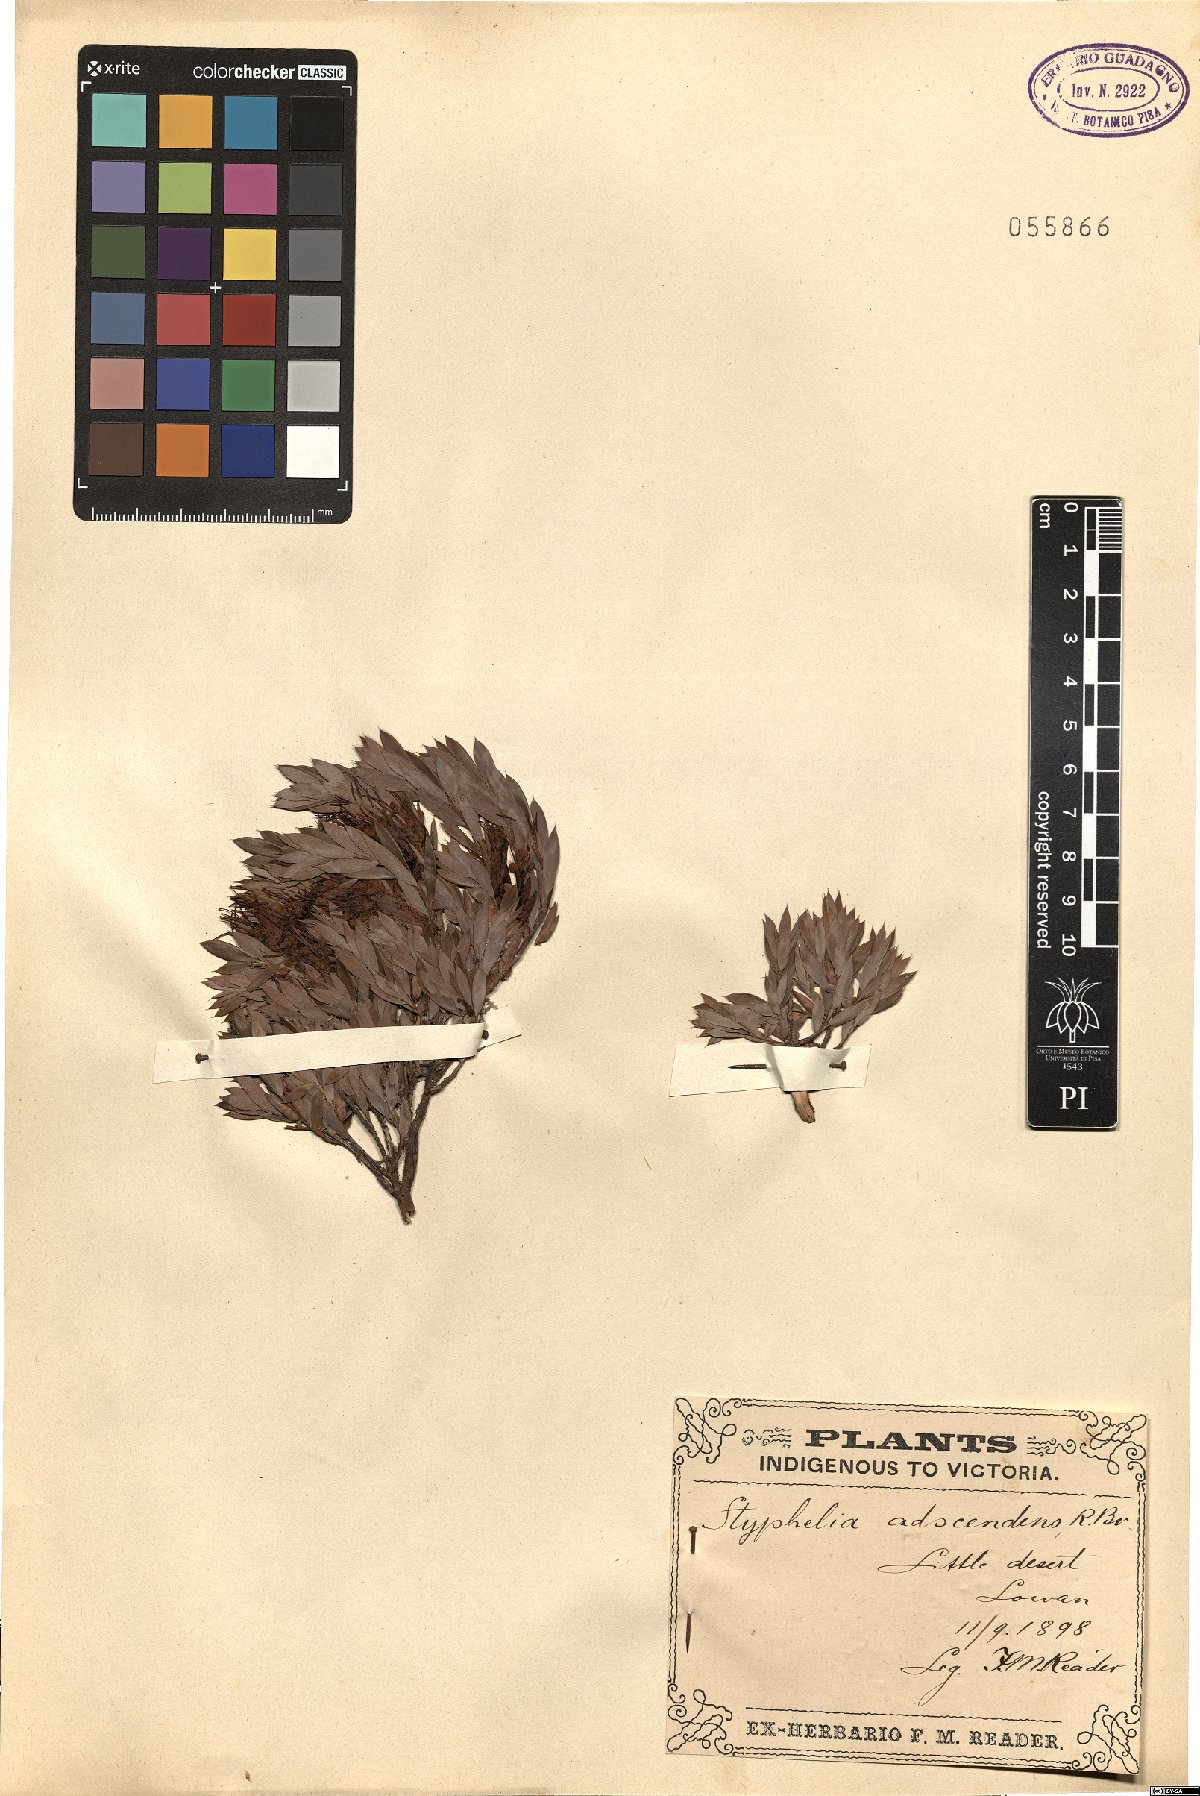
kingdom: Plantae
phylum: Tracheophyta
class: Magnoliopsida
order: Ericales
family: Ericaceae
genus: Styphelia
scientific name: Styphelia adscendens
